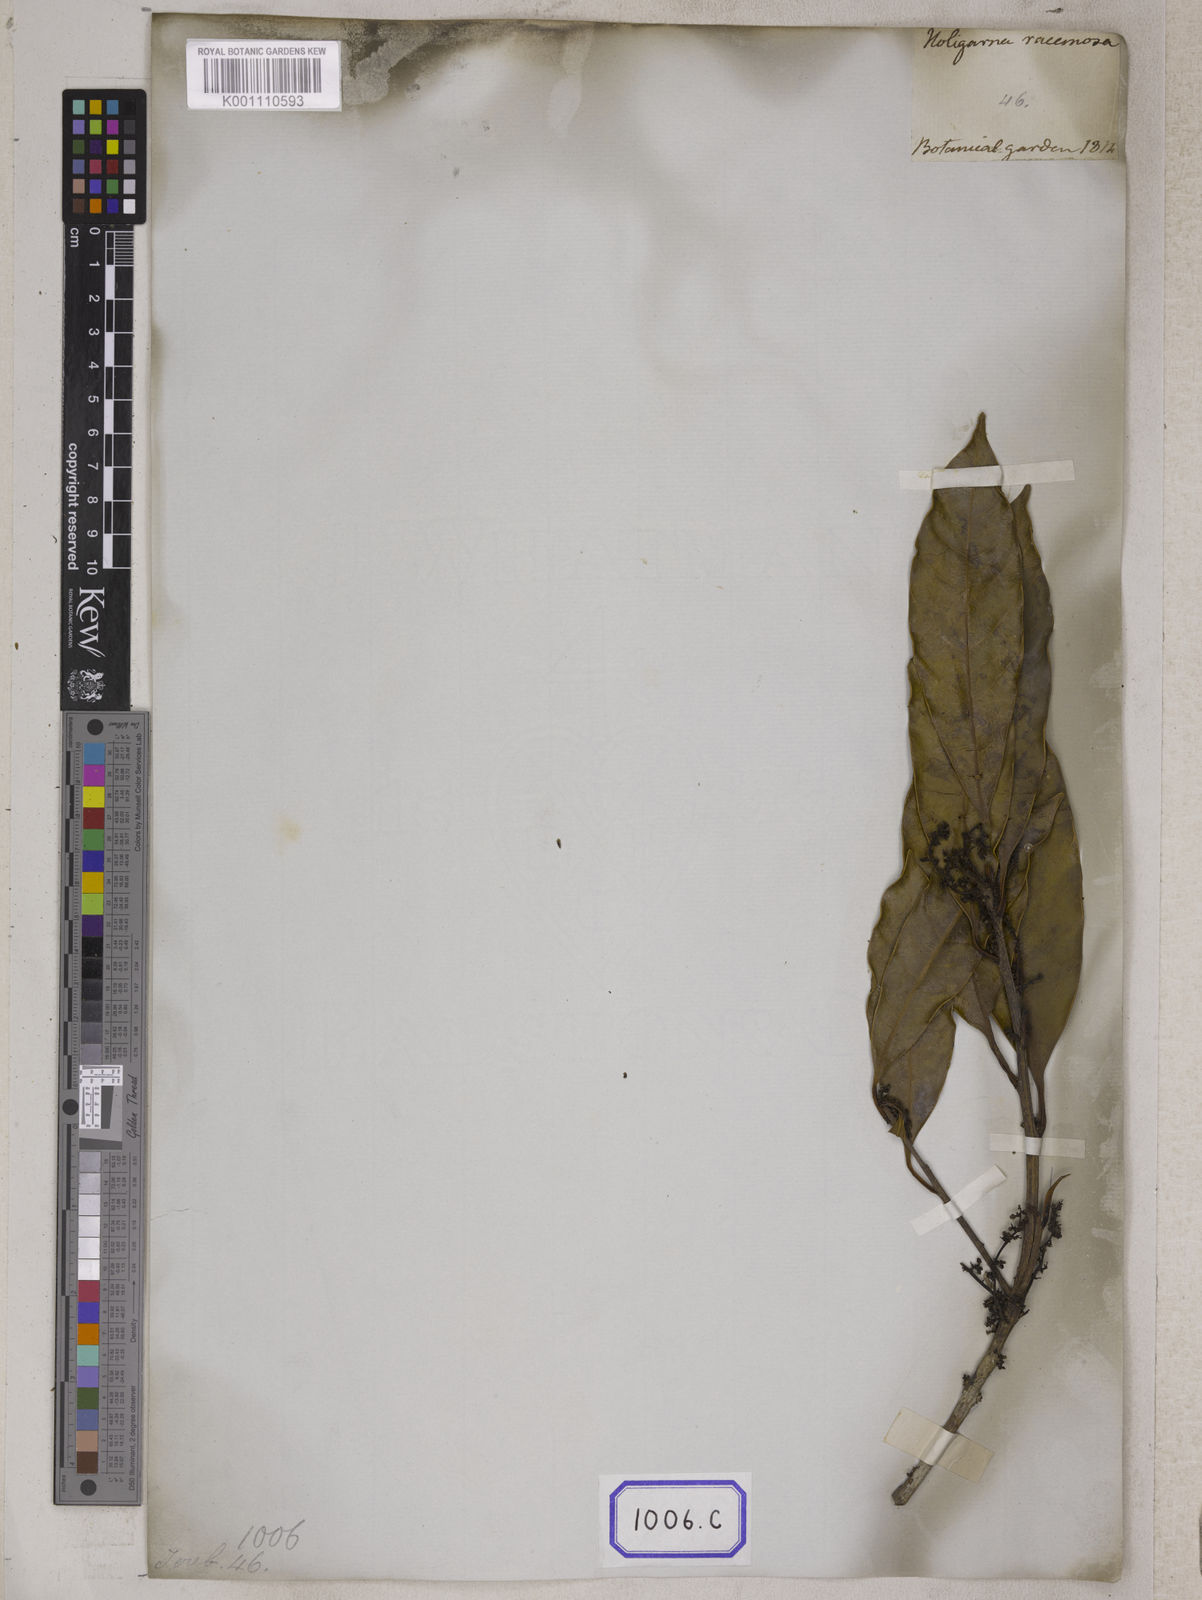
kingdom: Plantae
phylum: Tracheophyta
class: Magnoliopsida
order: Sapindales
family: Anacardiaceae
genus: Drimycarpus
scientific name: Drimycarpus racemosus
